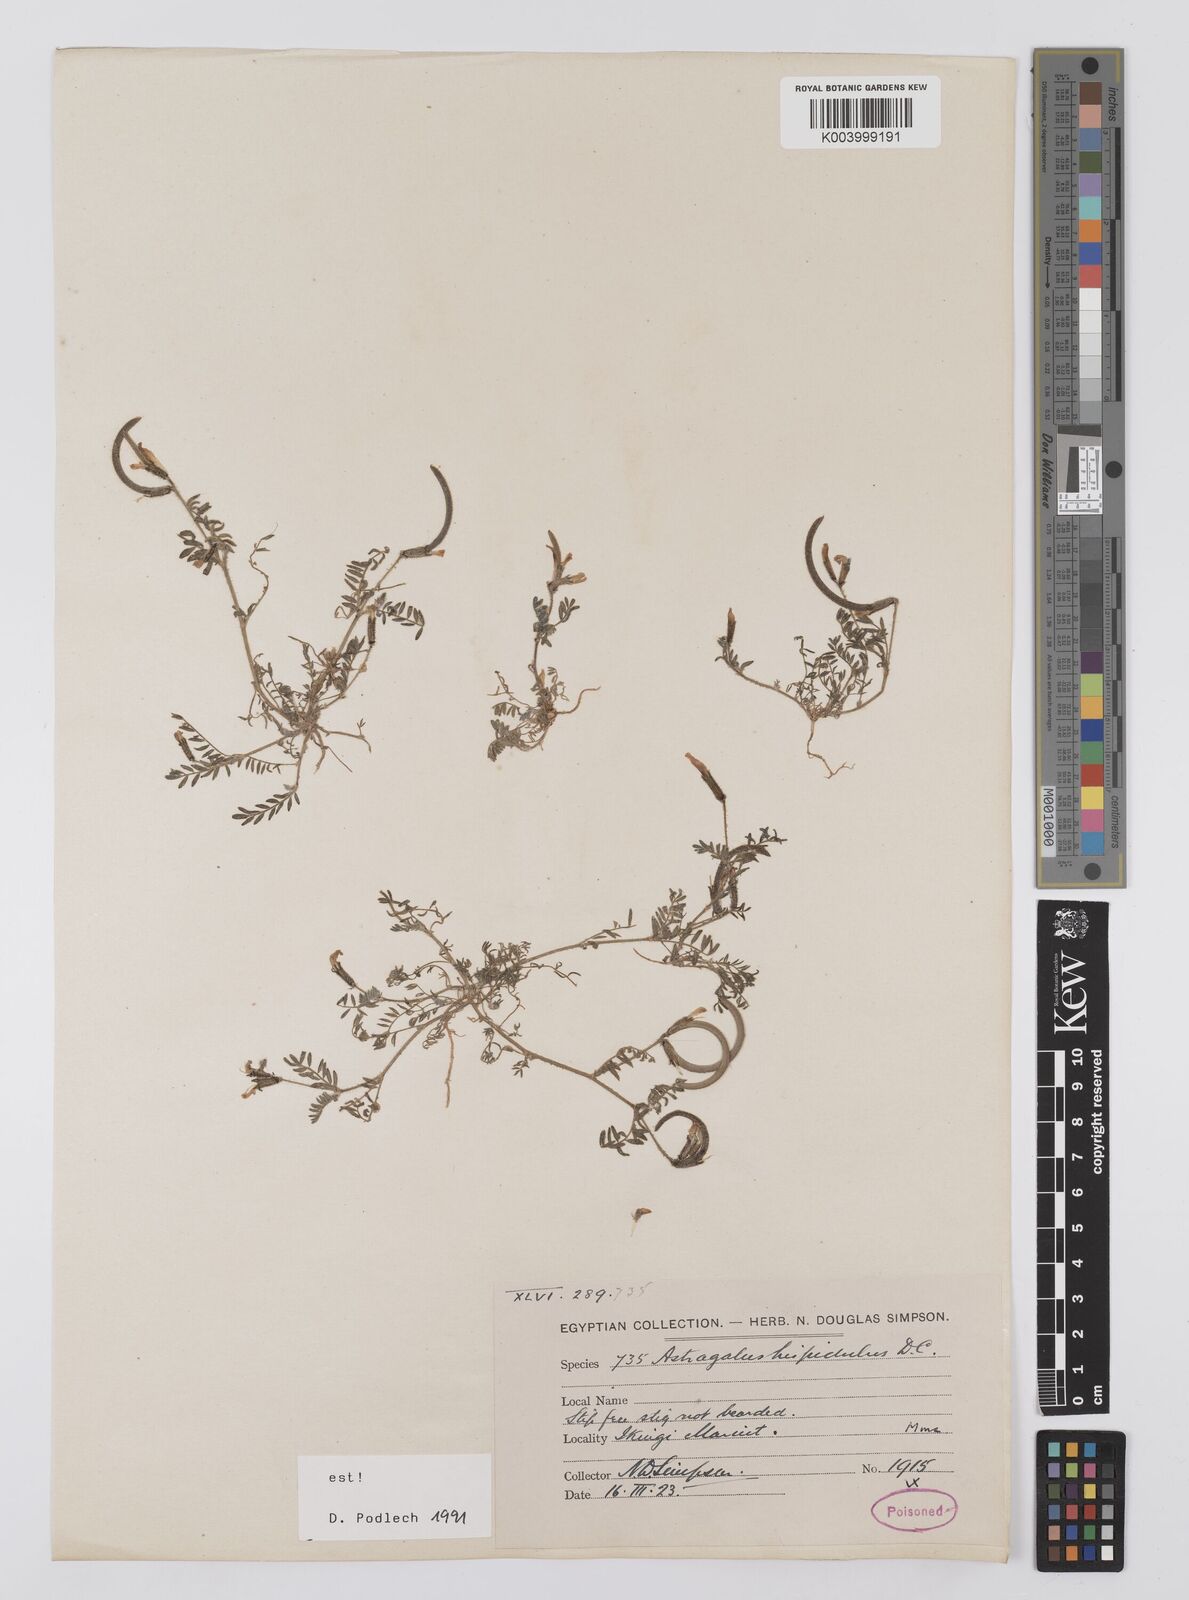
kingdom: Plantae
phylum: Tracheophyta
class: Magnoliopsida
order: Fabales
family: Fabaceae
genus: Astragalus
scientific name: Astragalus hispidulus
